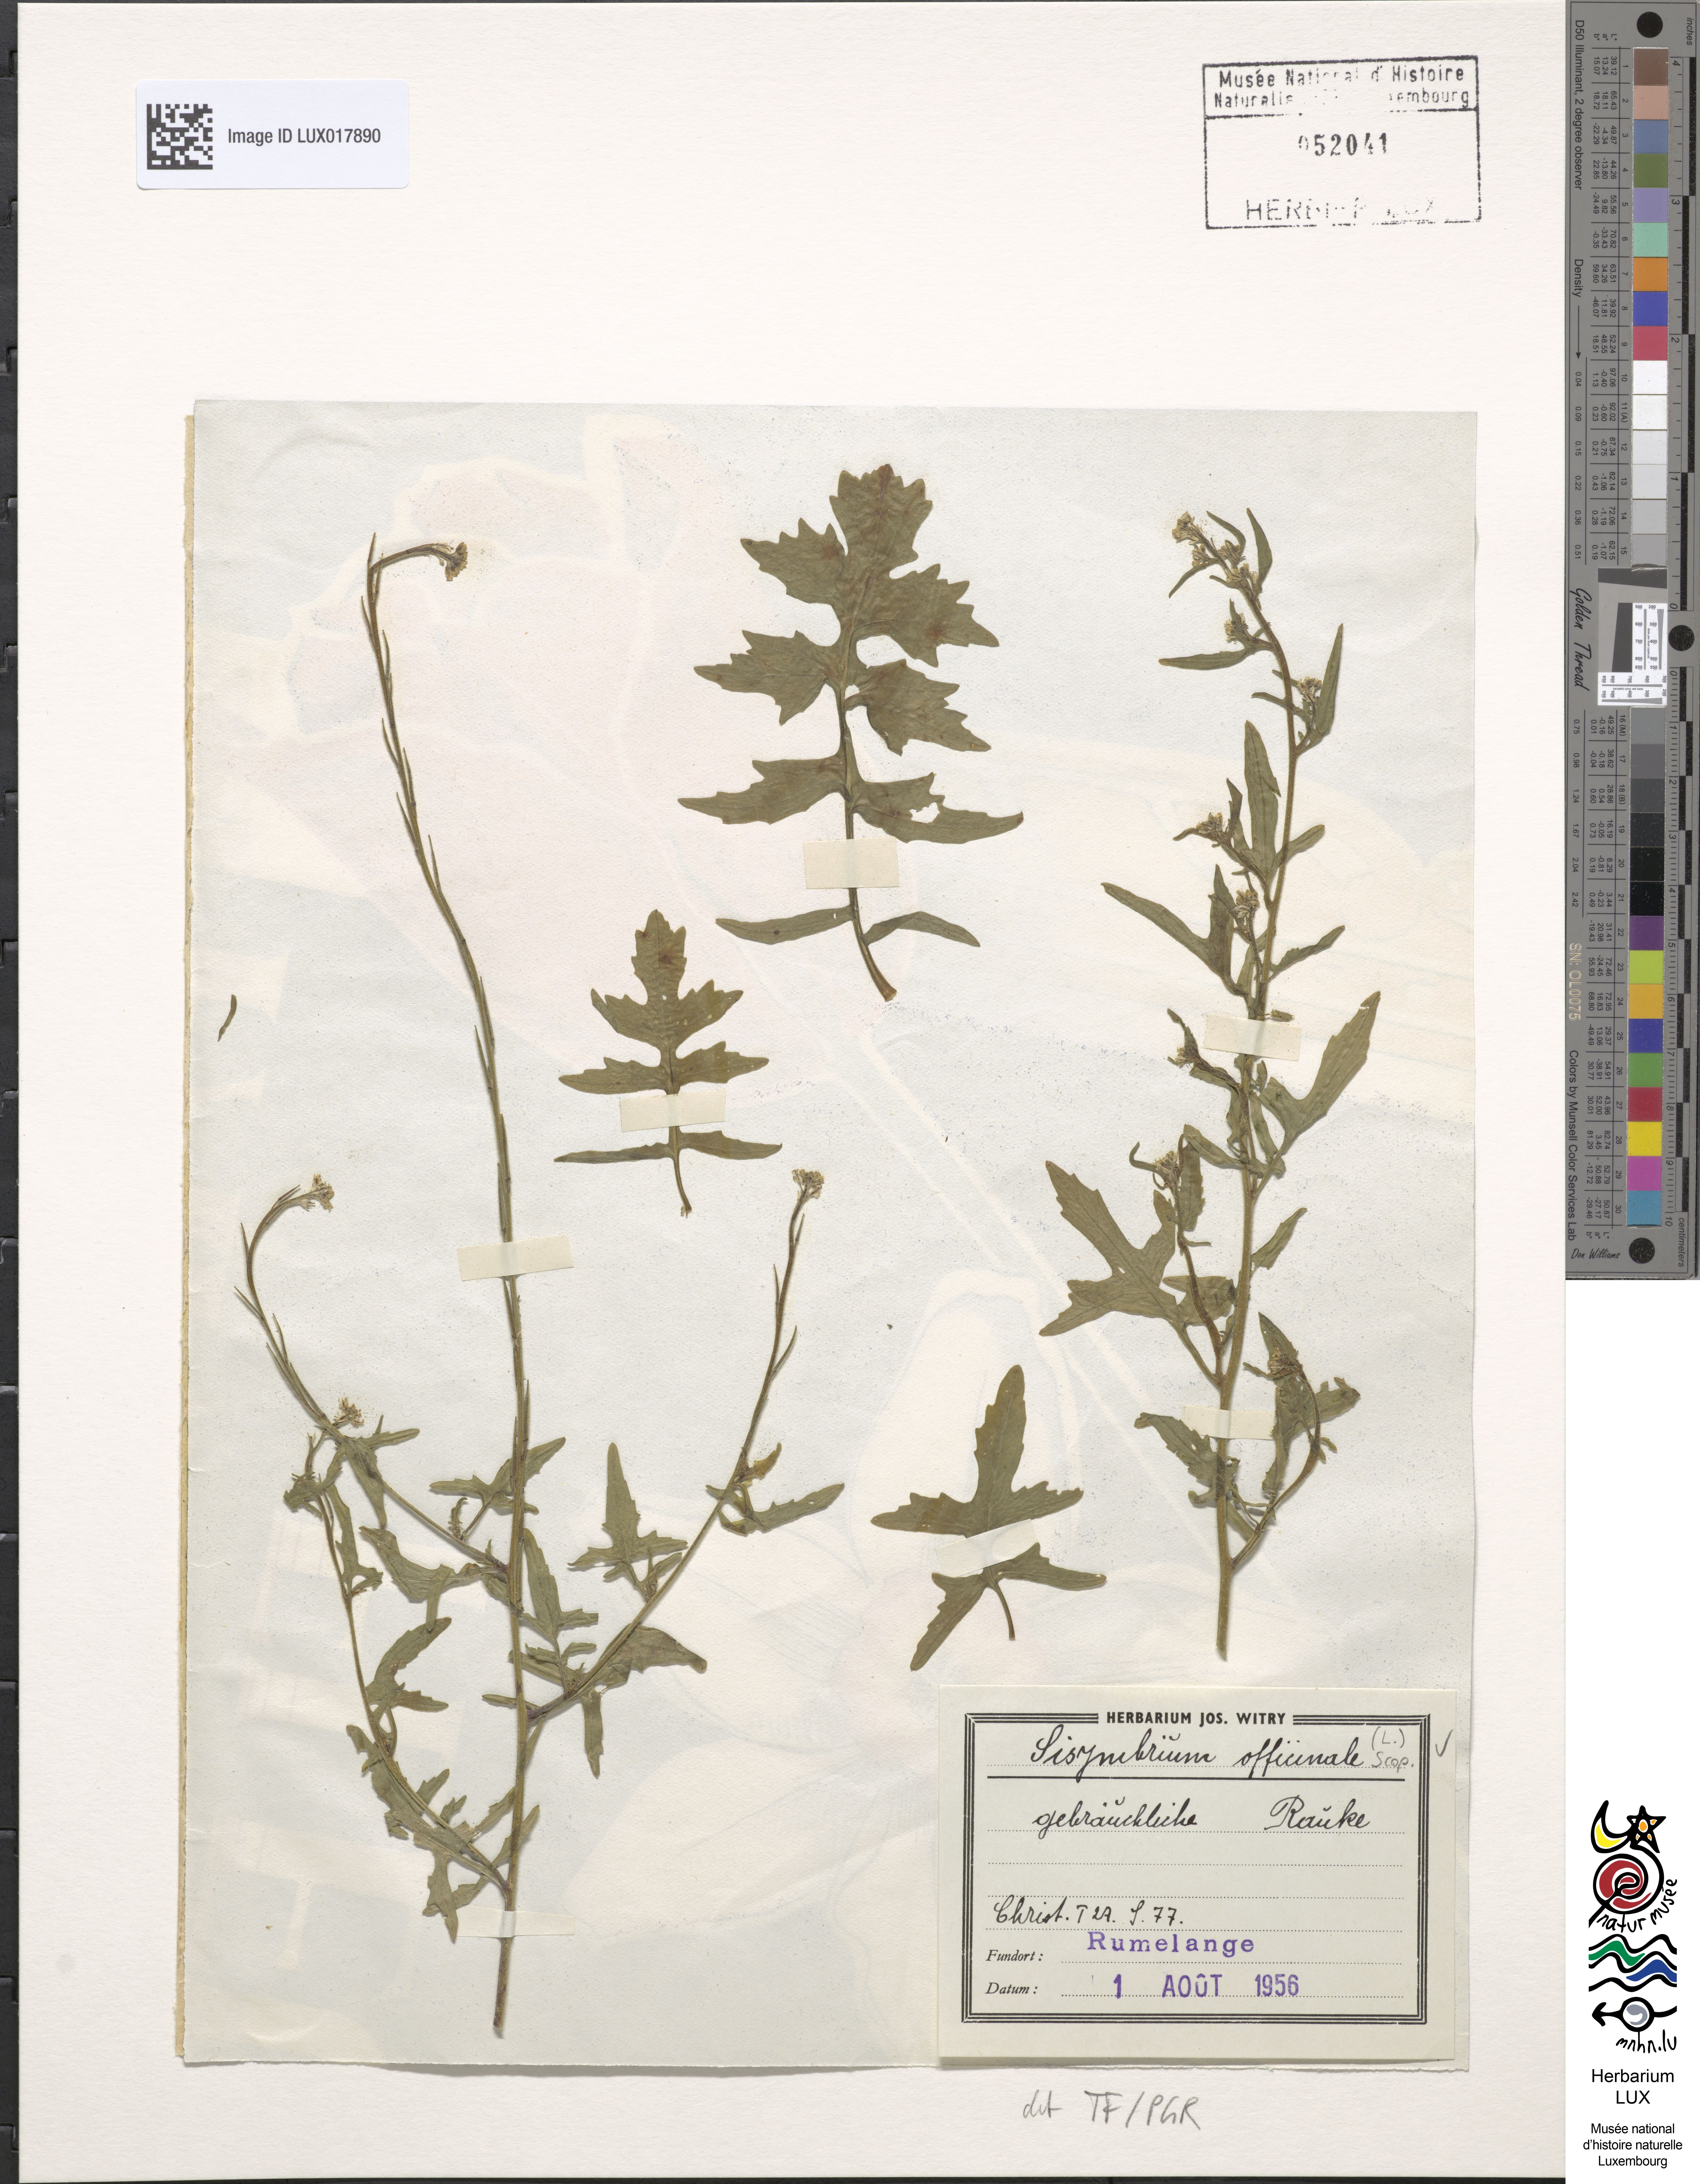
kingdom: Plantae
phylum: Tracheophyta
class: Magnoliopsida
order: Brassicales
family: Brassicaceae
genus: Sisymbrium
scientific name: Sisymbrium officinale
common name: Hedge mustard
